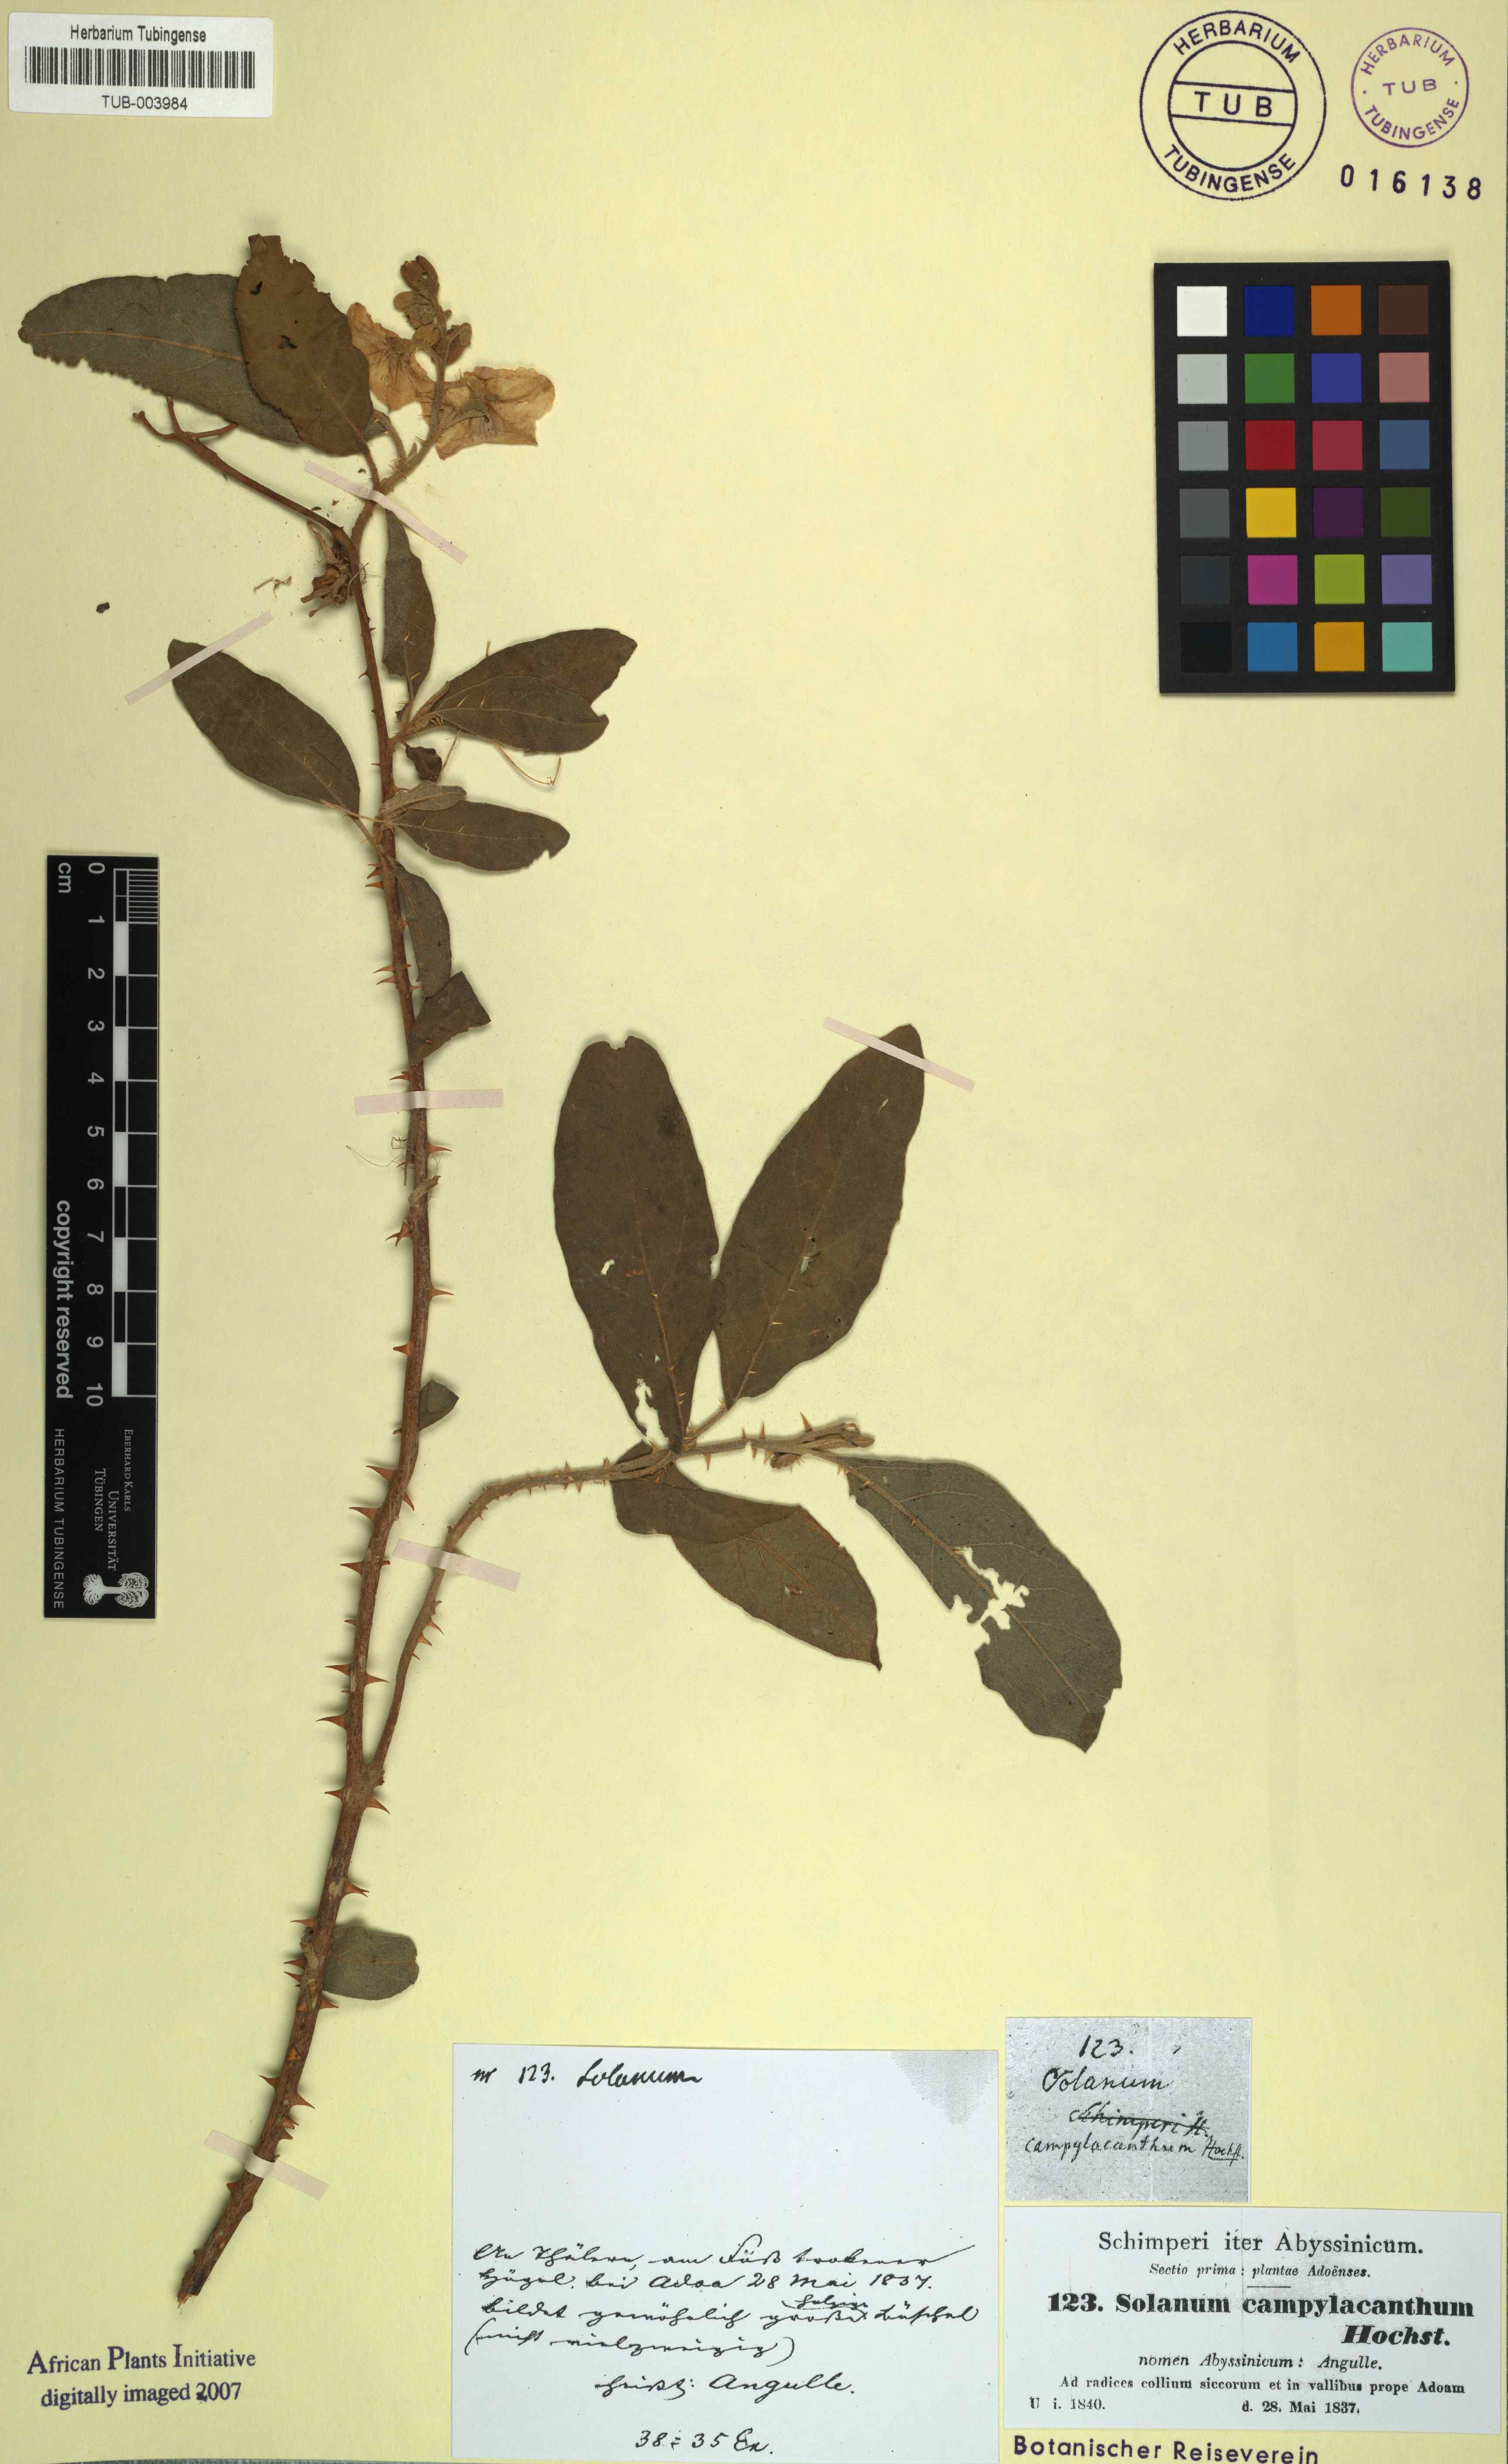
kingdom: Plantae
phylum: Tracheophyta
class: Magnoliopsida
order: Solanales
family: Solanaceae
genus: Solanum
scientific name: Solanum campylacanthum
